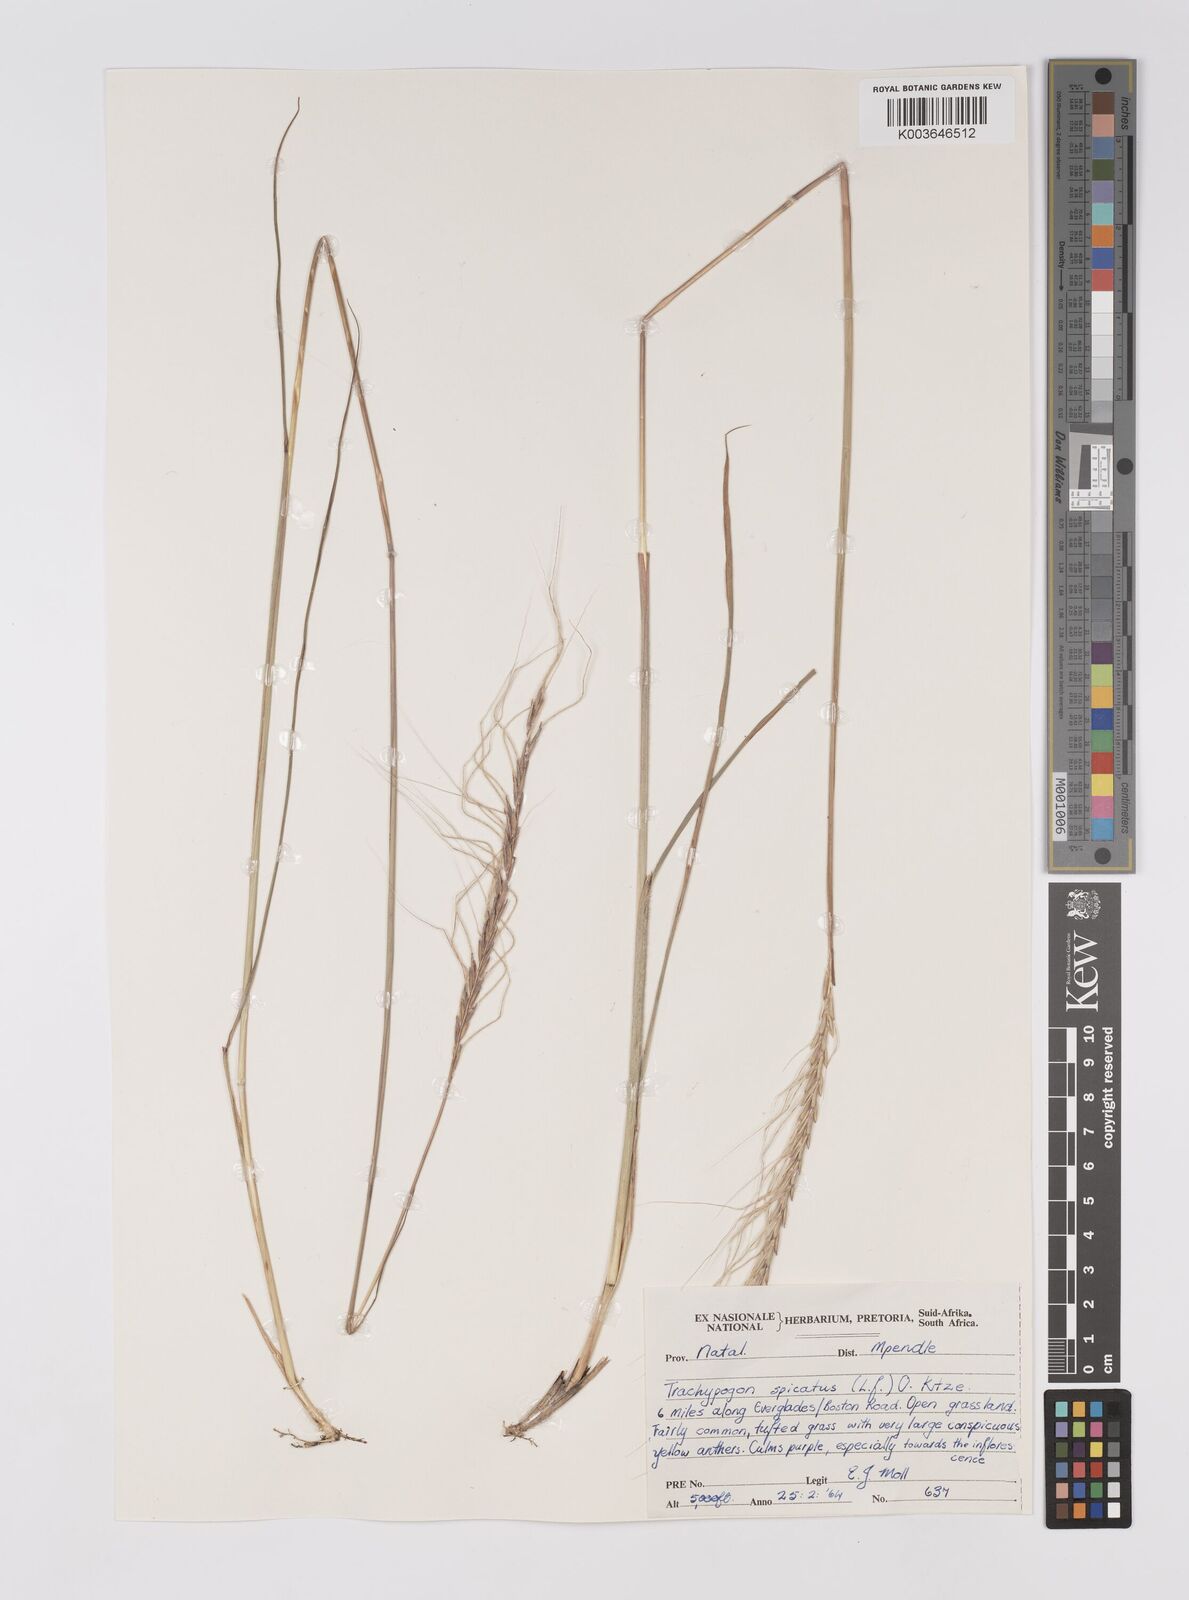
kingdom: Plantae
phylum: Tracheophyta
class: Liliopsida
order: Poales
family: Poaceae
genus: Trachypogon
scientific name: Trachypogon spicatus
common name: Crinkle-awn
